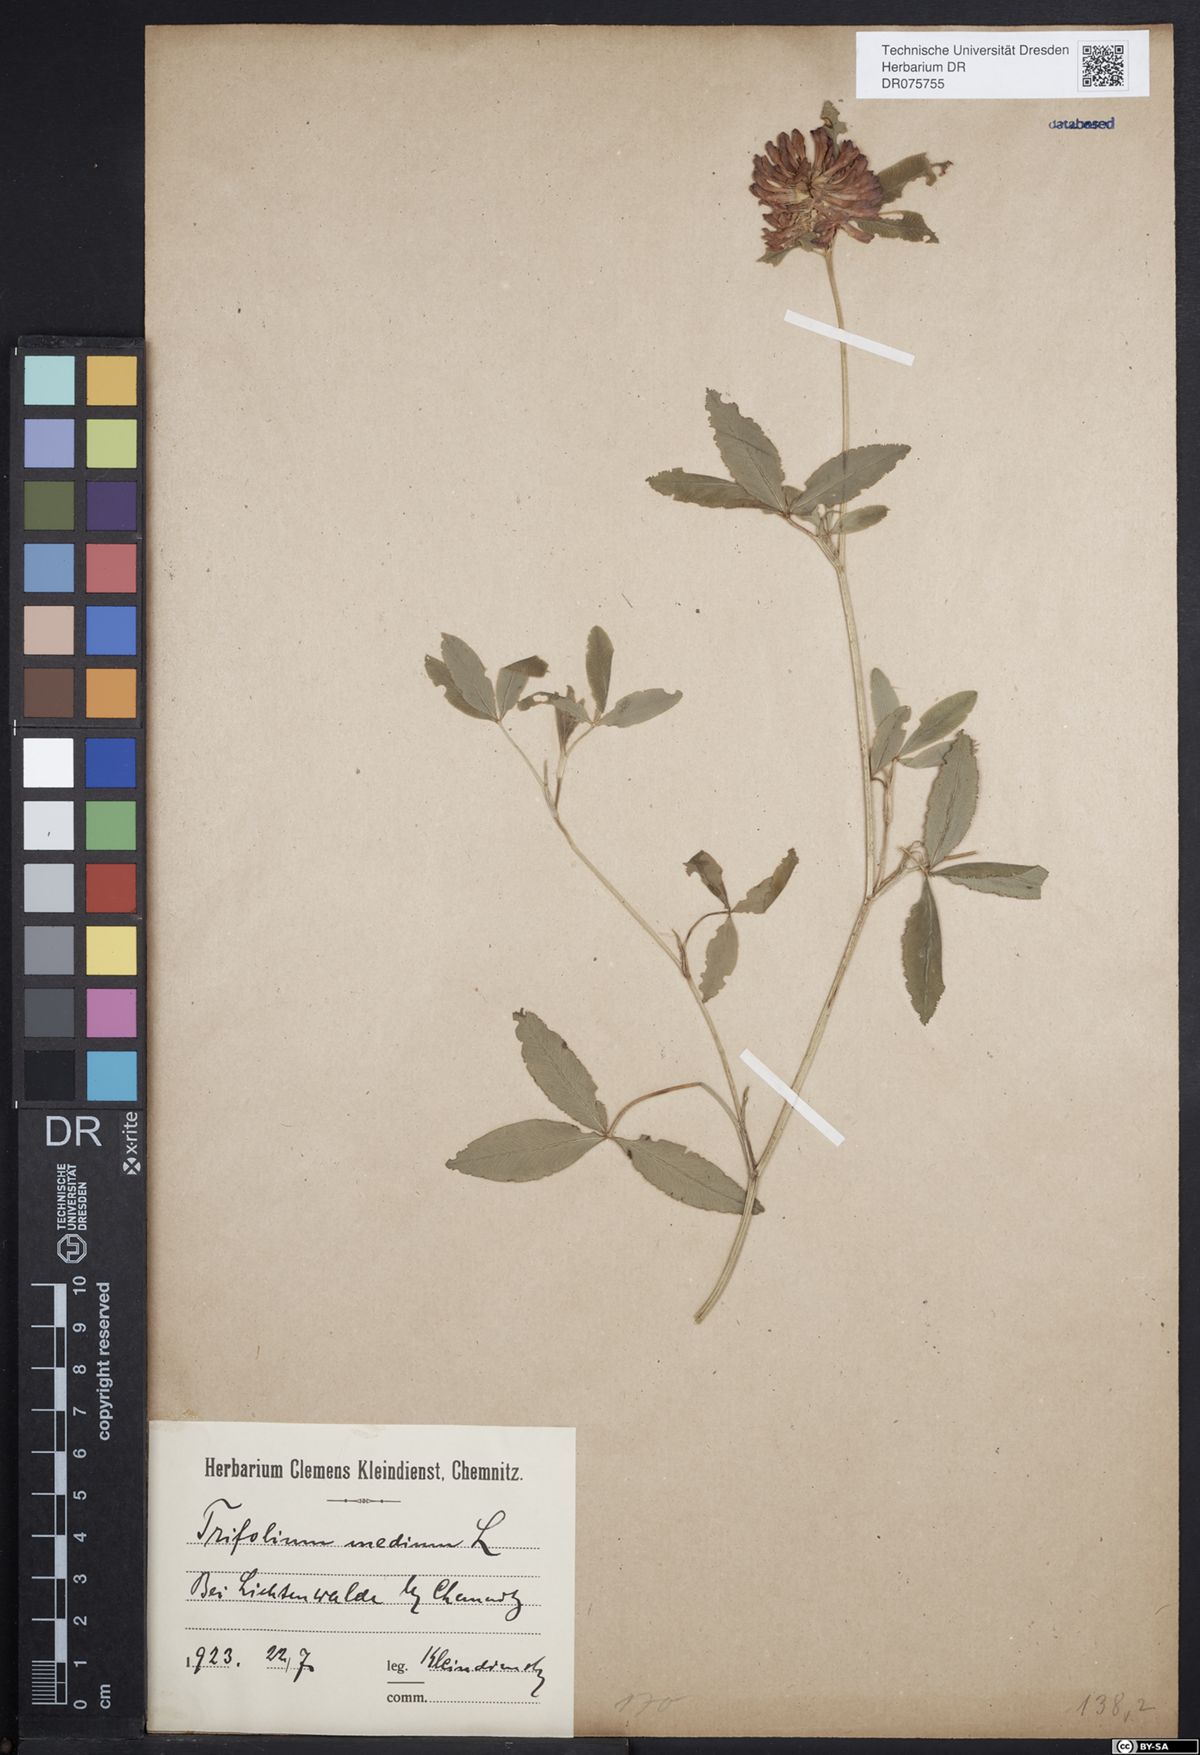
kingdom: Plantae
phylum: Tracheophyta
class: Magnoliopsida
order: Fabales
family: Fabaceae
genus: Trifolium
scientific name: Trifolium medium
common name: Zigzag clover
